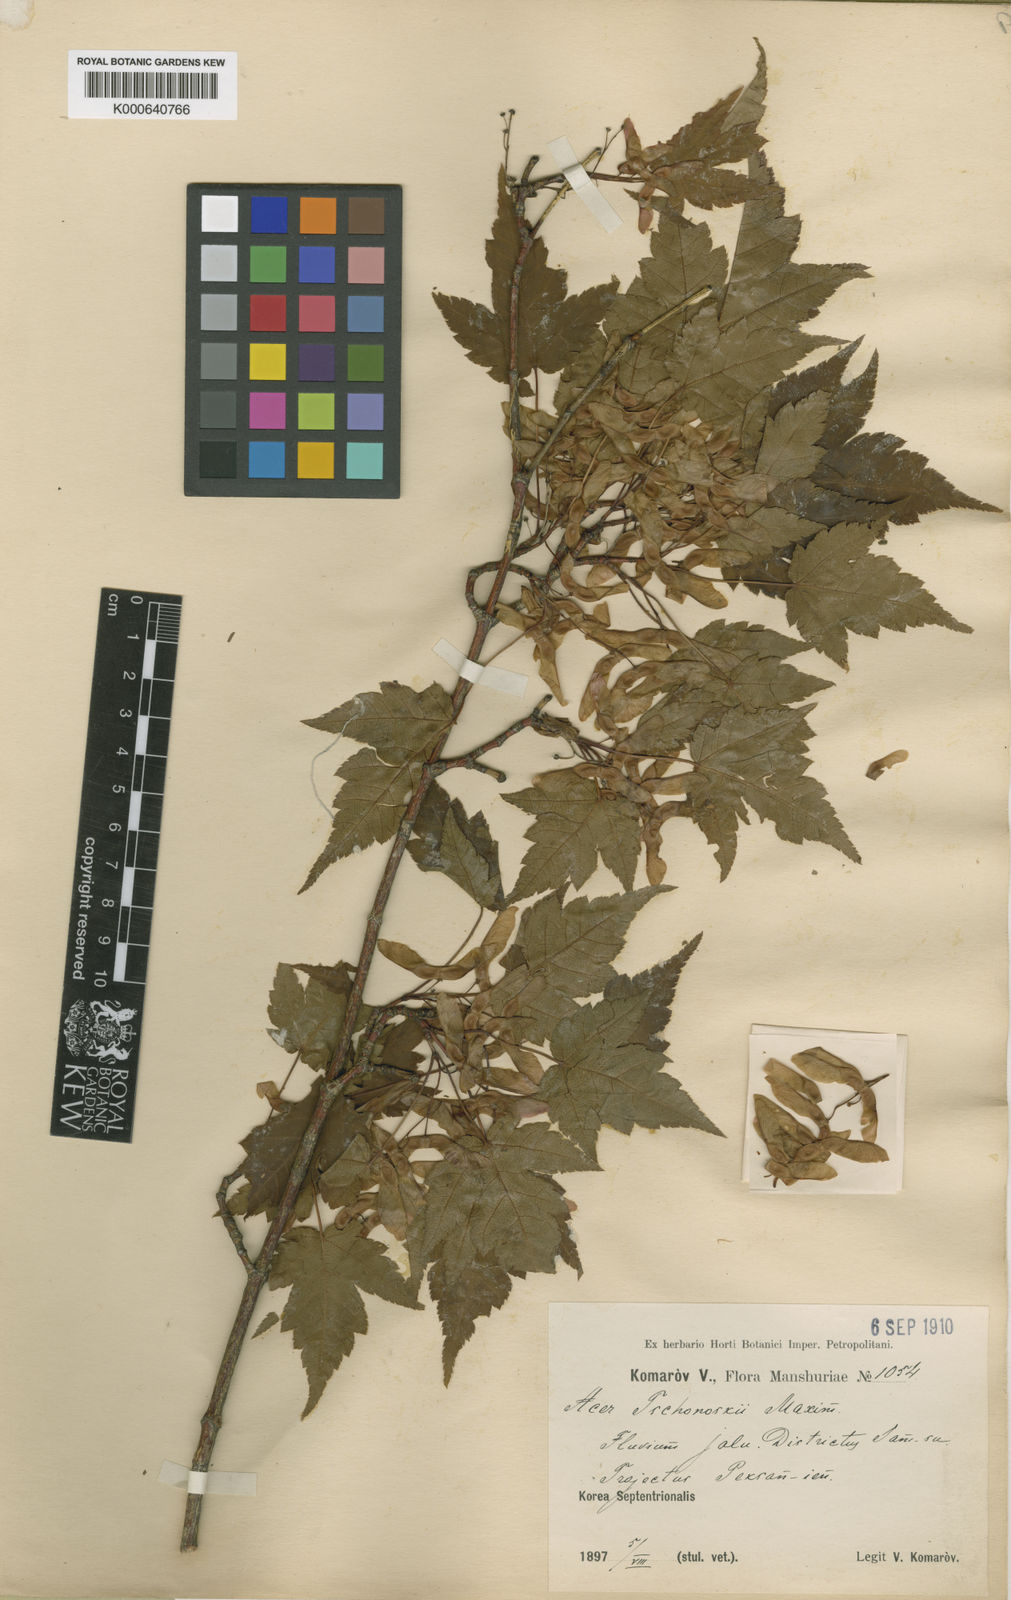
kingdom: Plantae
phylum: Tracheophyta
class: Magnoliopsida
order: Sapindales
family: Sapindaceae
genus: Acer
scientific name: Acer tschonoskii
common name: Tschonoski’s maple
